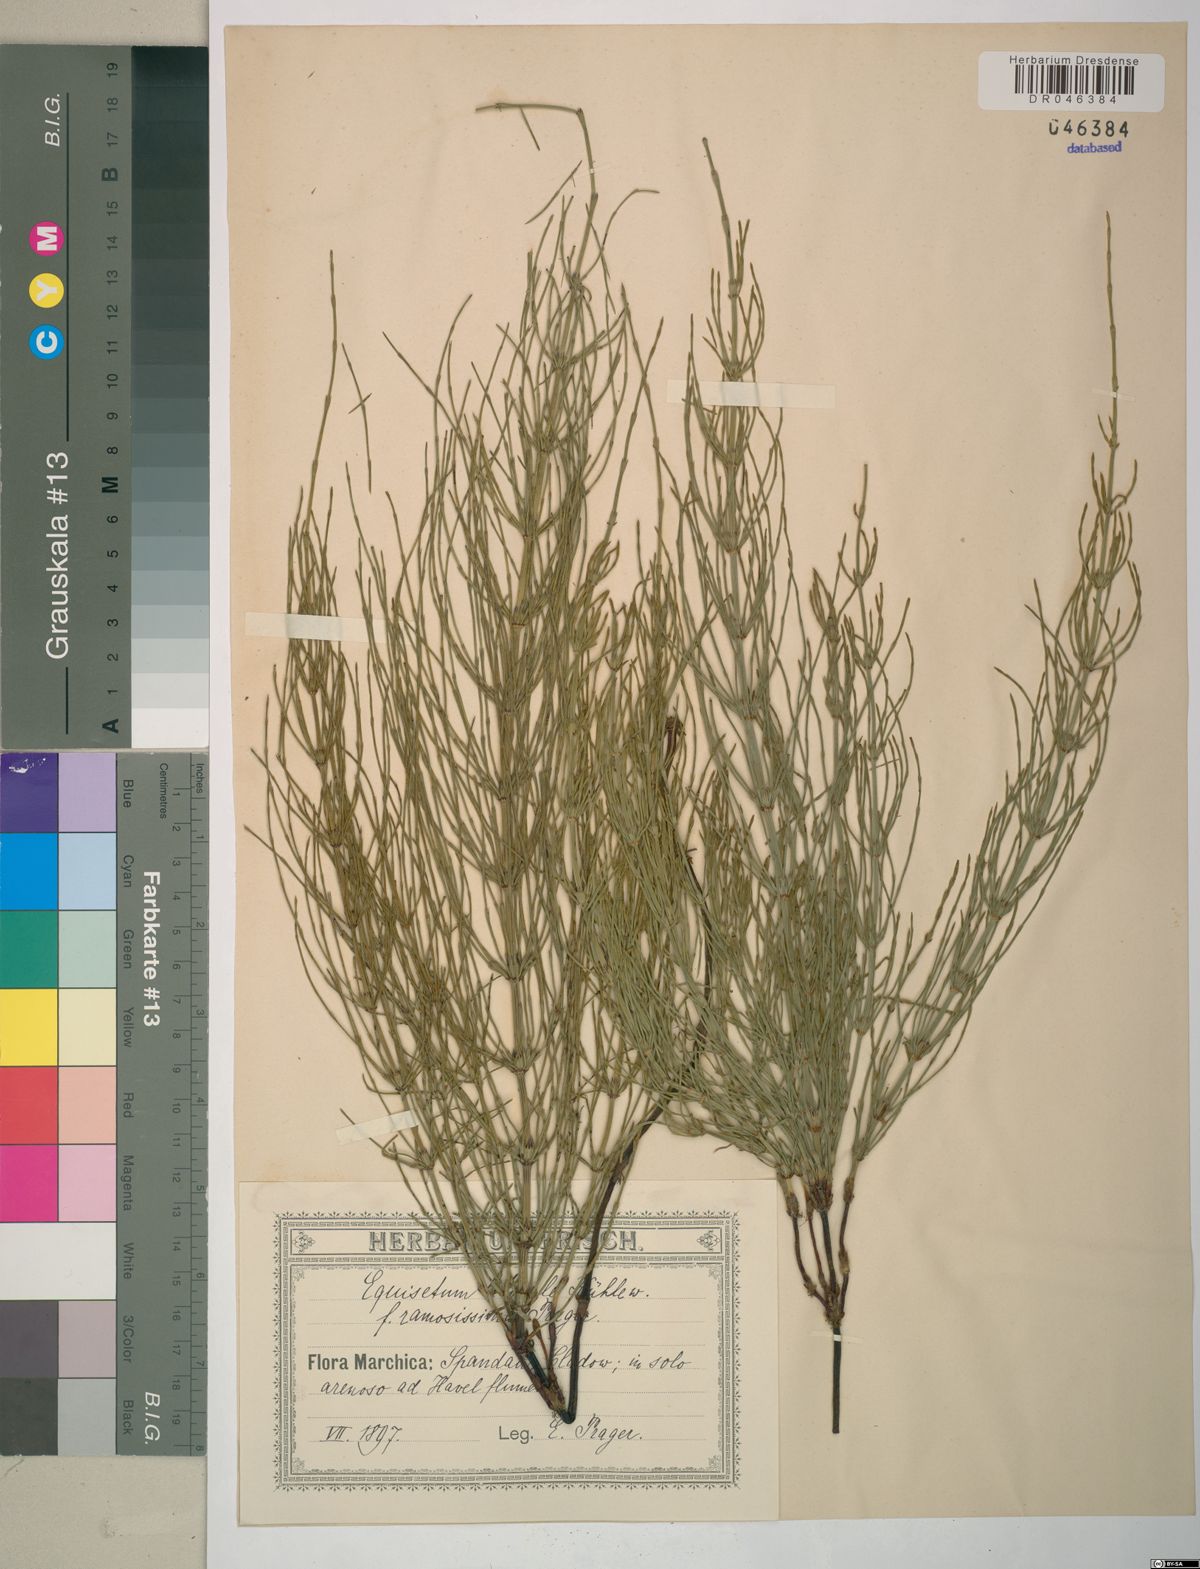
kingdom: Plantae
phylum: Tracheophyta
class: Polypodiopsida
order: Equisetales
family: Equisetaceae
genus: Equisetum
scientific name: Equisetum litorale
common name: Littoral horsetail
